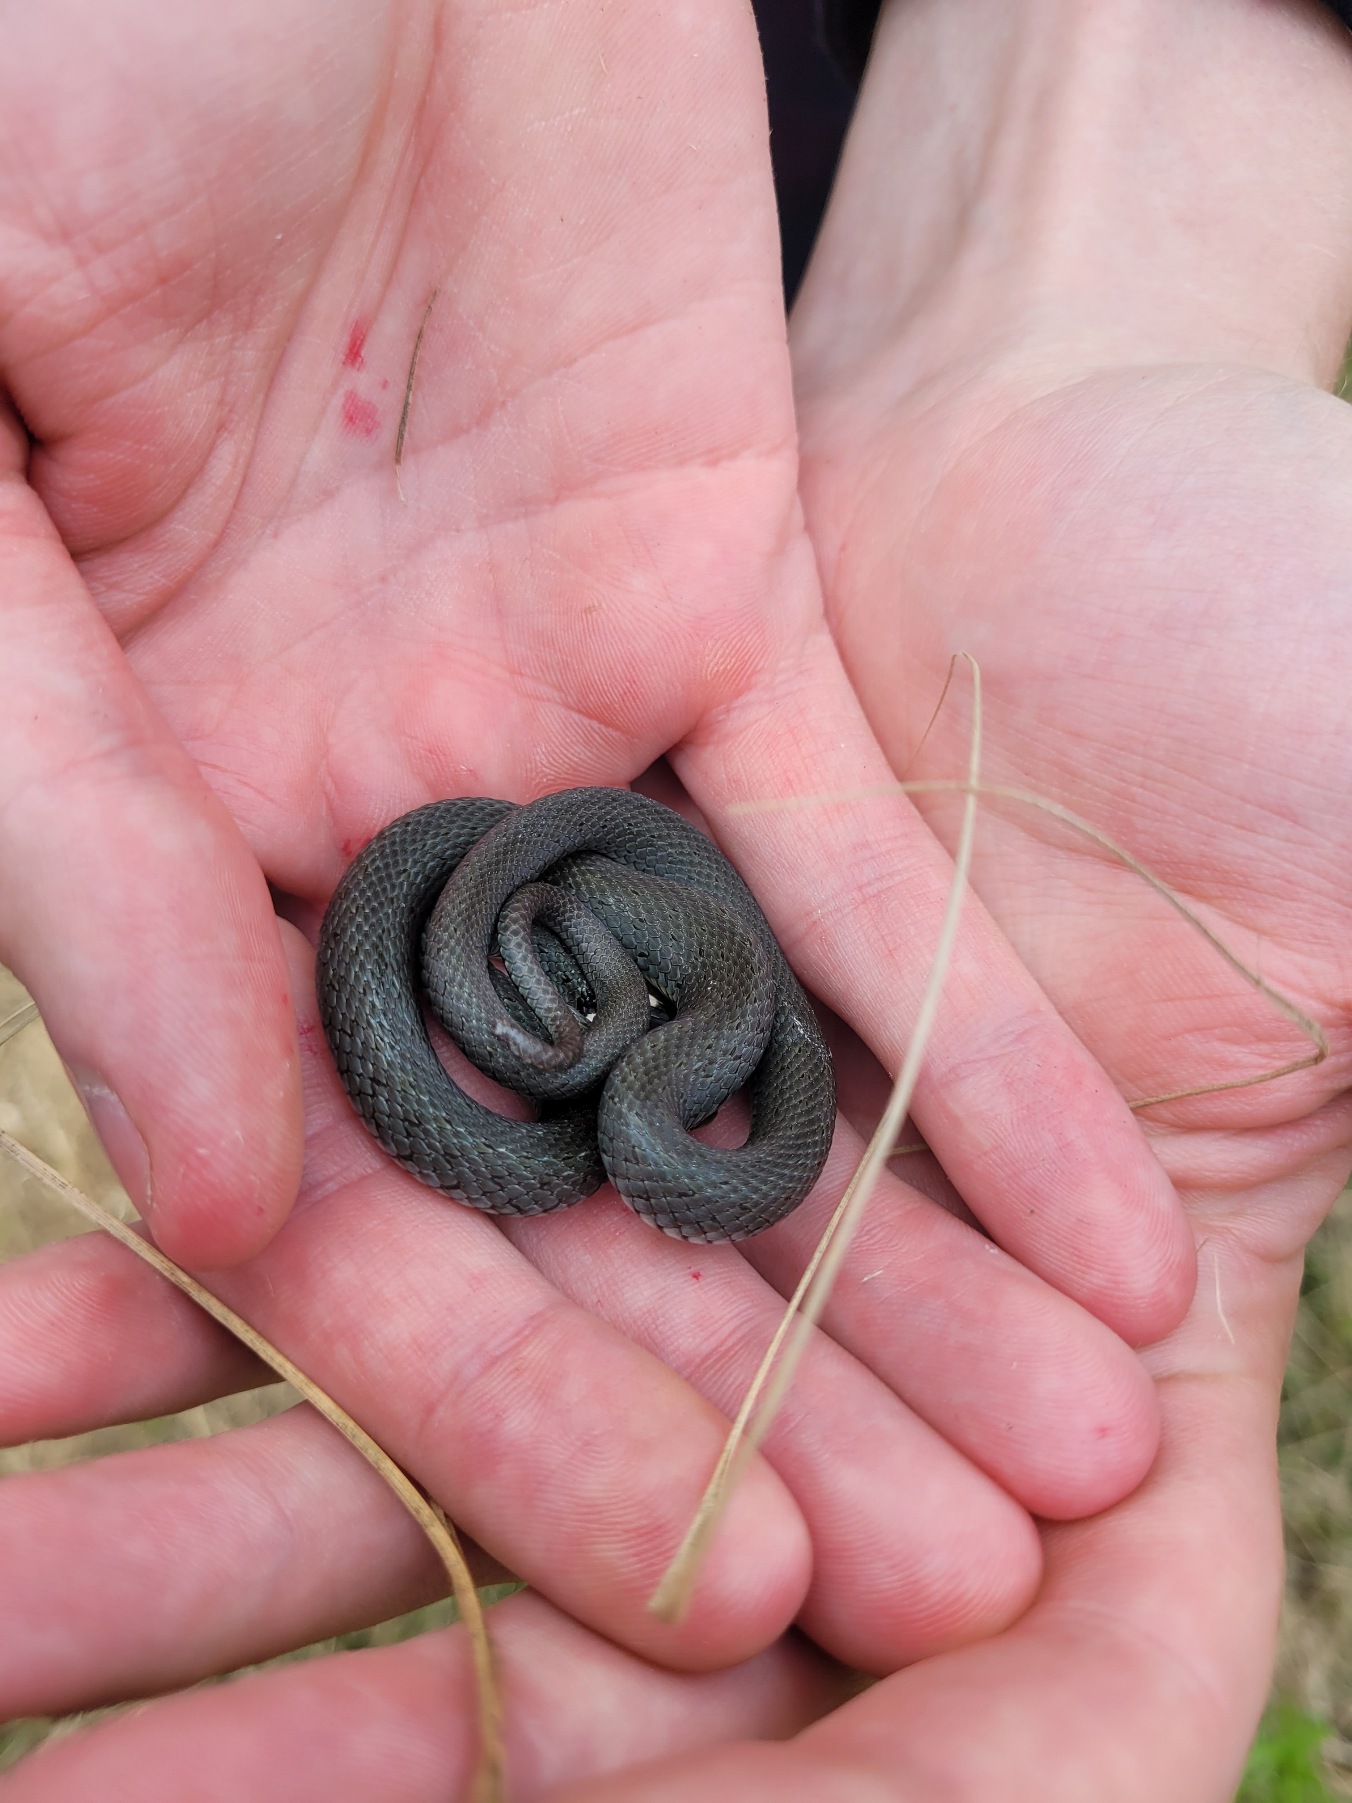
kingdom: Animalia
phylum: Chordata
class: Squamata
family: Colubridae
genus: Natrix
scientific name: Natrix natrix
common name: Snog
